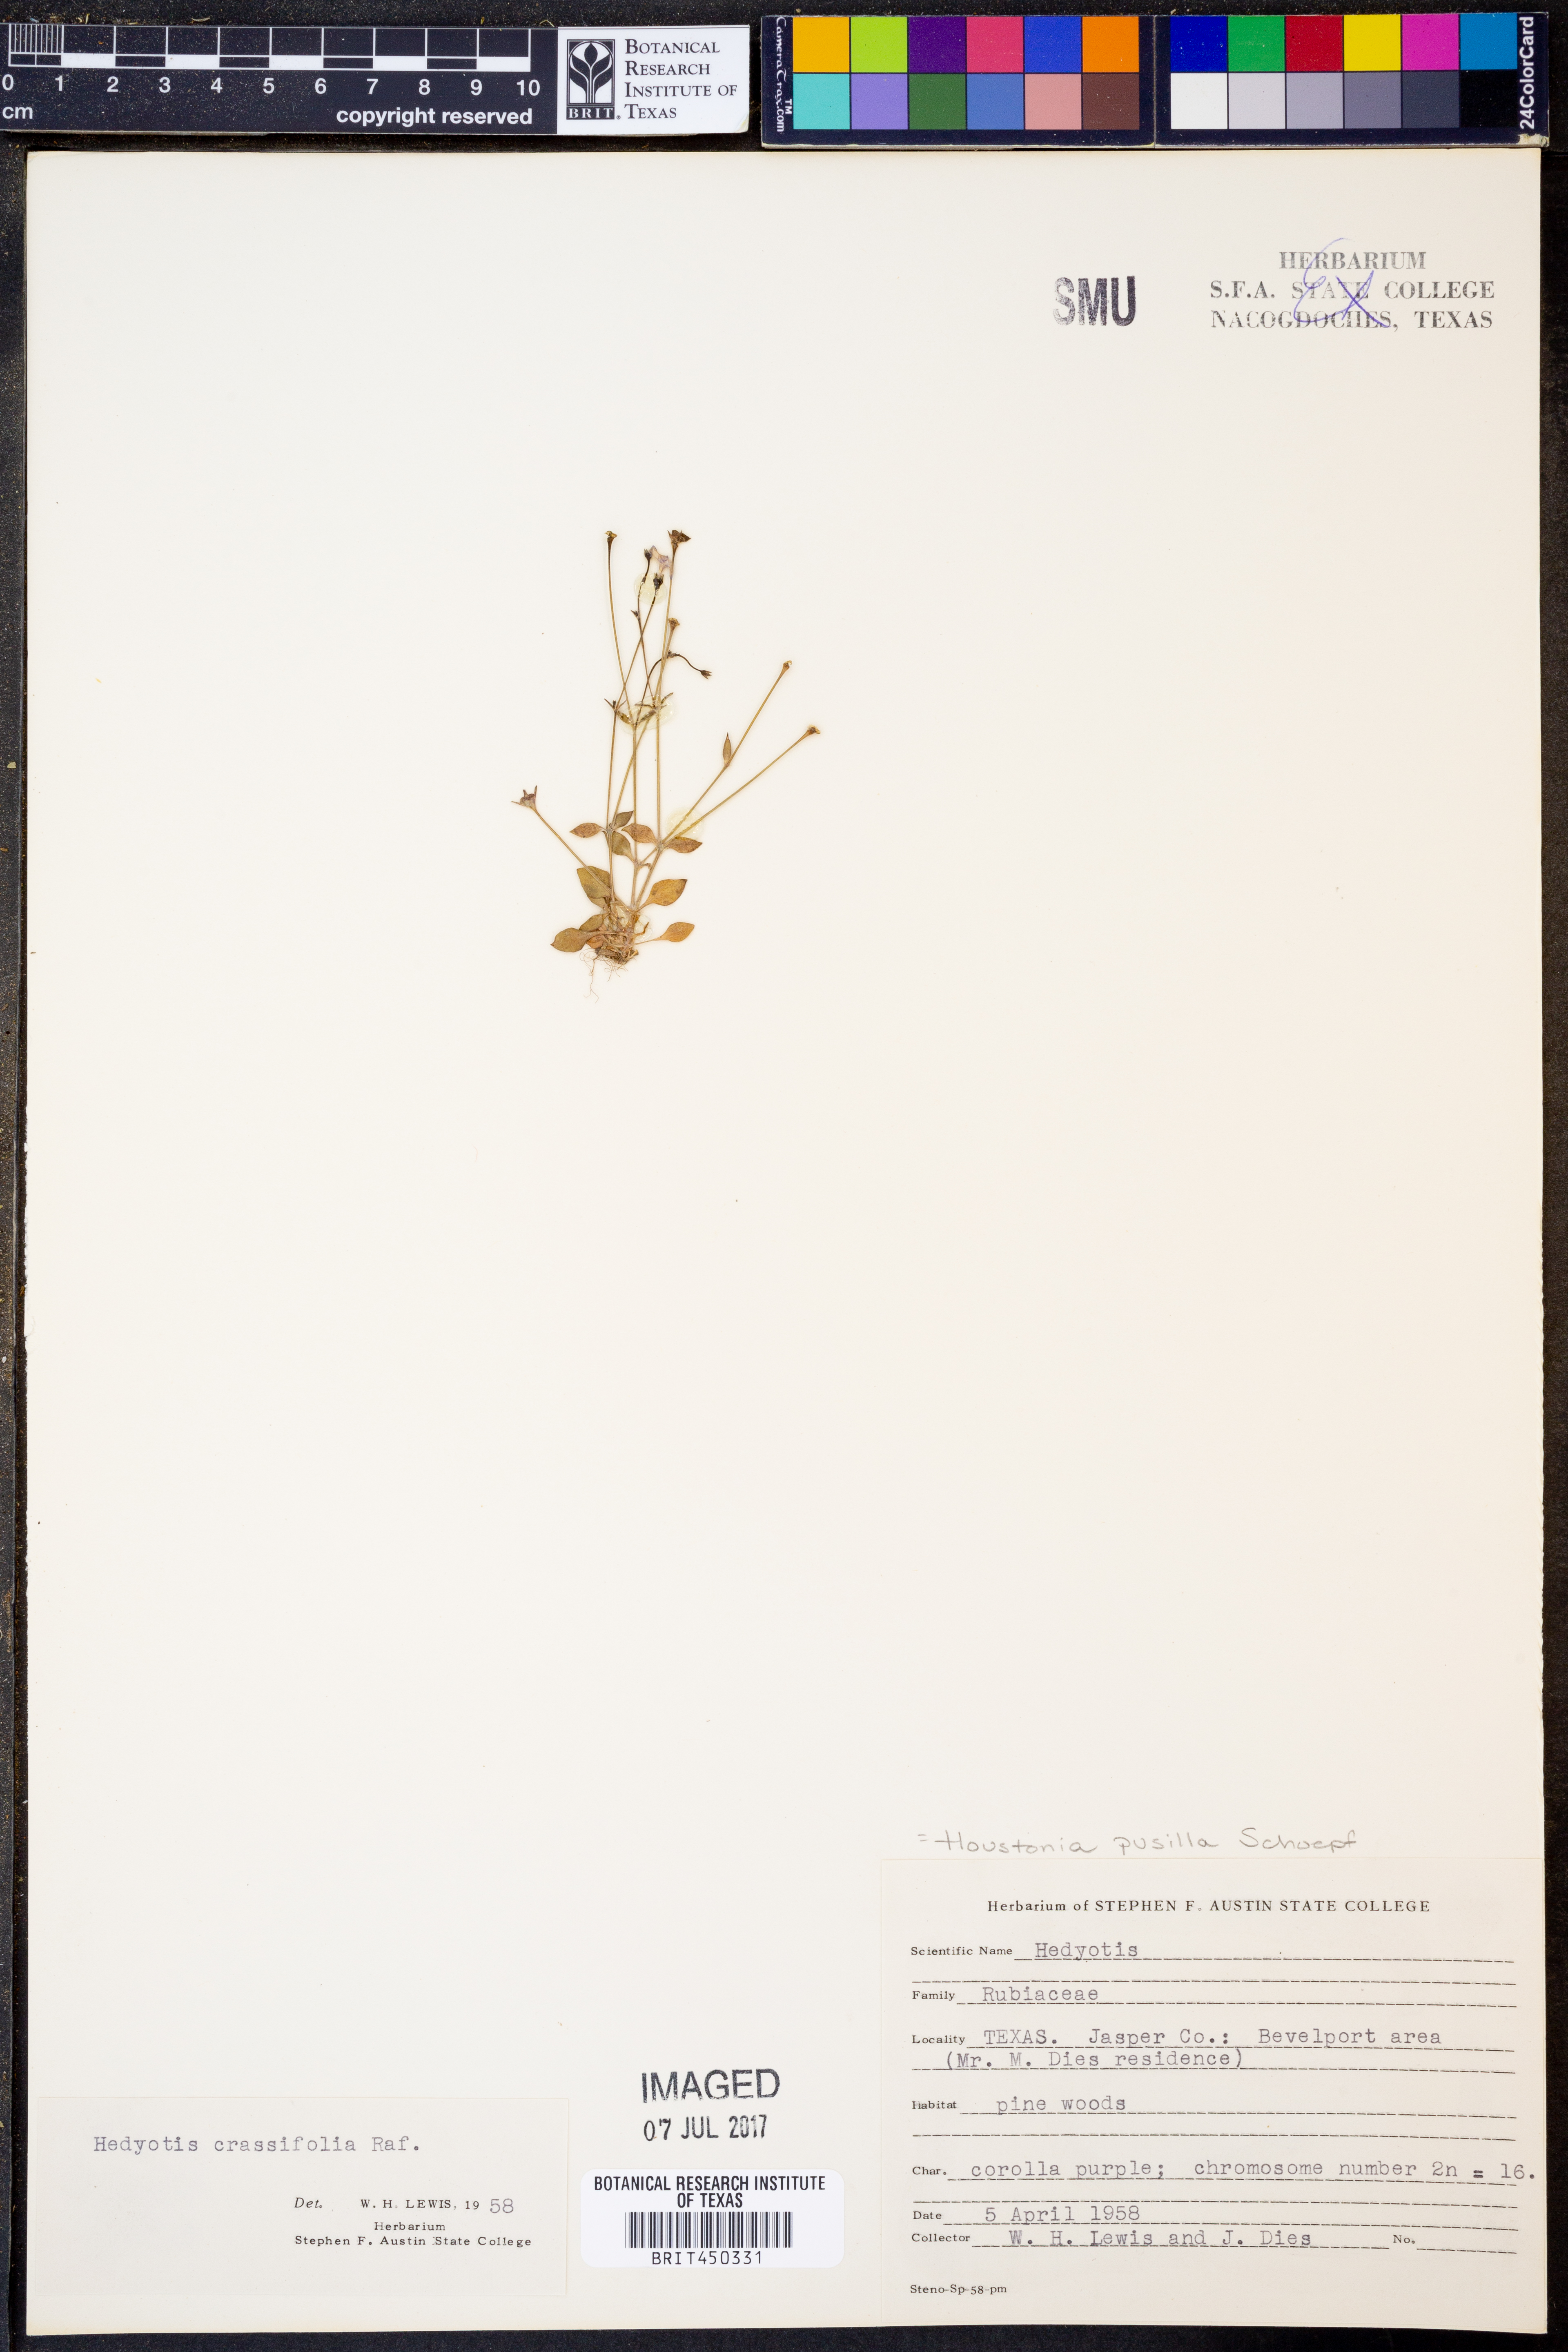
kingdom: Plantae
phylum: Tracheophyta
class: Magnoliopsida
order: Gentianales
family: Rubiaceae
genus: Houstonia
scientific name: Houstonia pusilla
